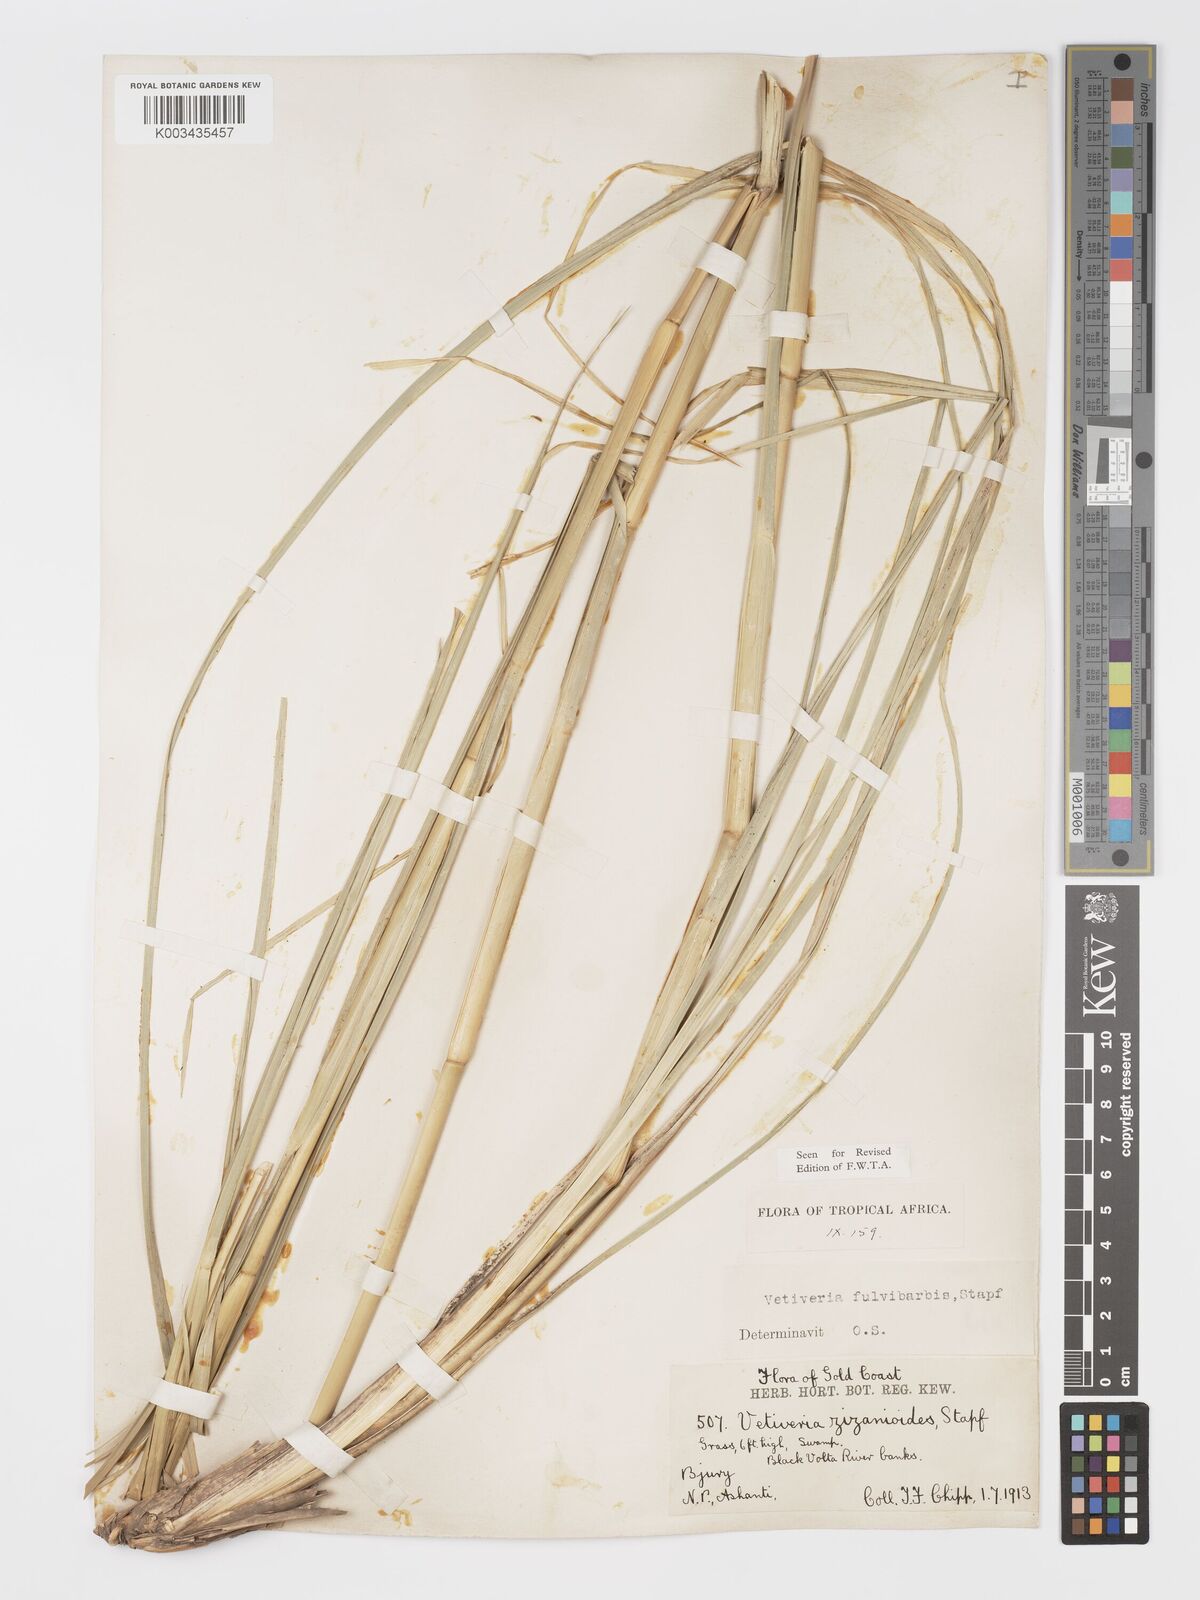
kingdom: Plantae
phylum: Tracheophyta
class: Liliopsida
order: Poales
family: Poaceae
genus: Chrysopogon
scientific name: Chrysopogon fulvibarbis
